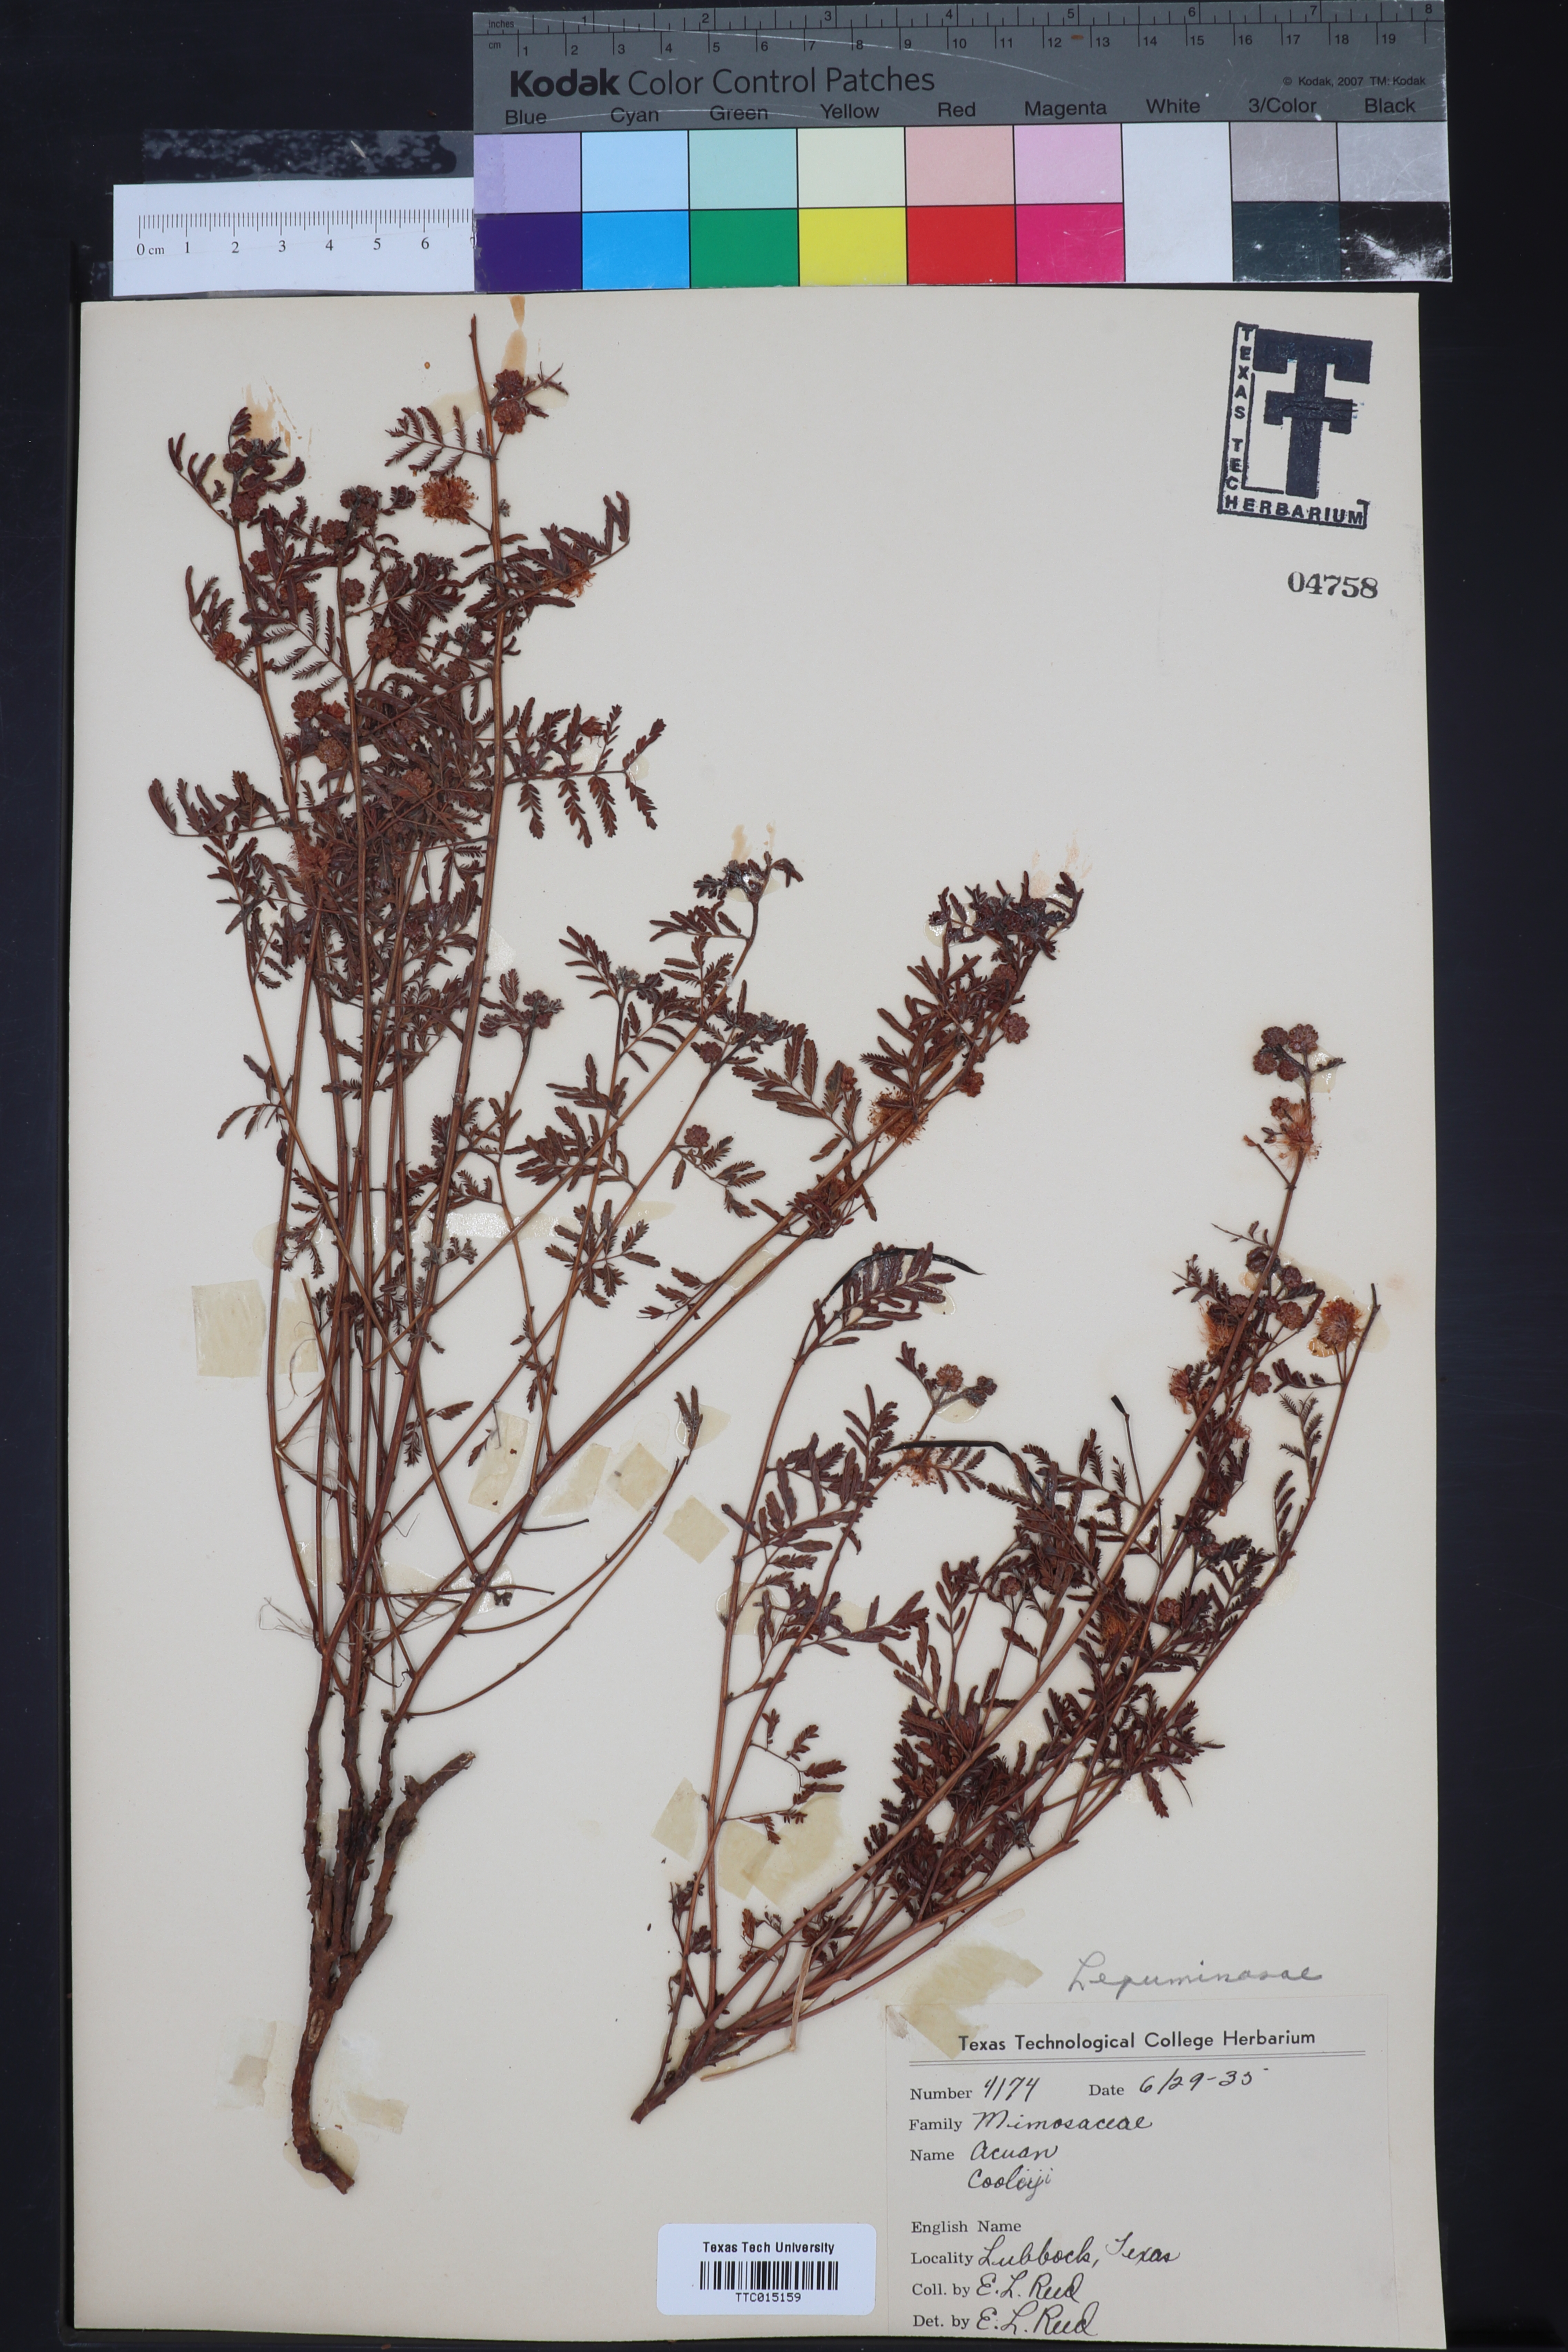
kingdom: Plantae
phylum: Tracheophyta
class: Magnoliopsida
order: Fabales
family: Fabaceae
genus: Desmanthus
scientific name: Desmanthus cooleyi
